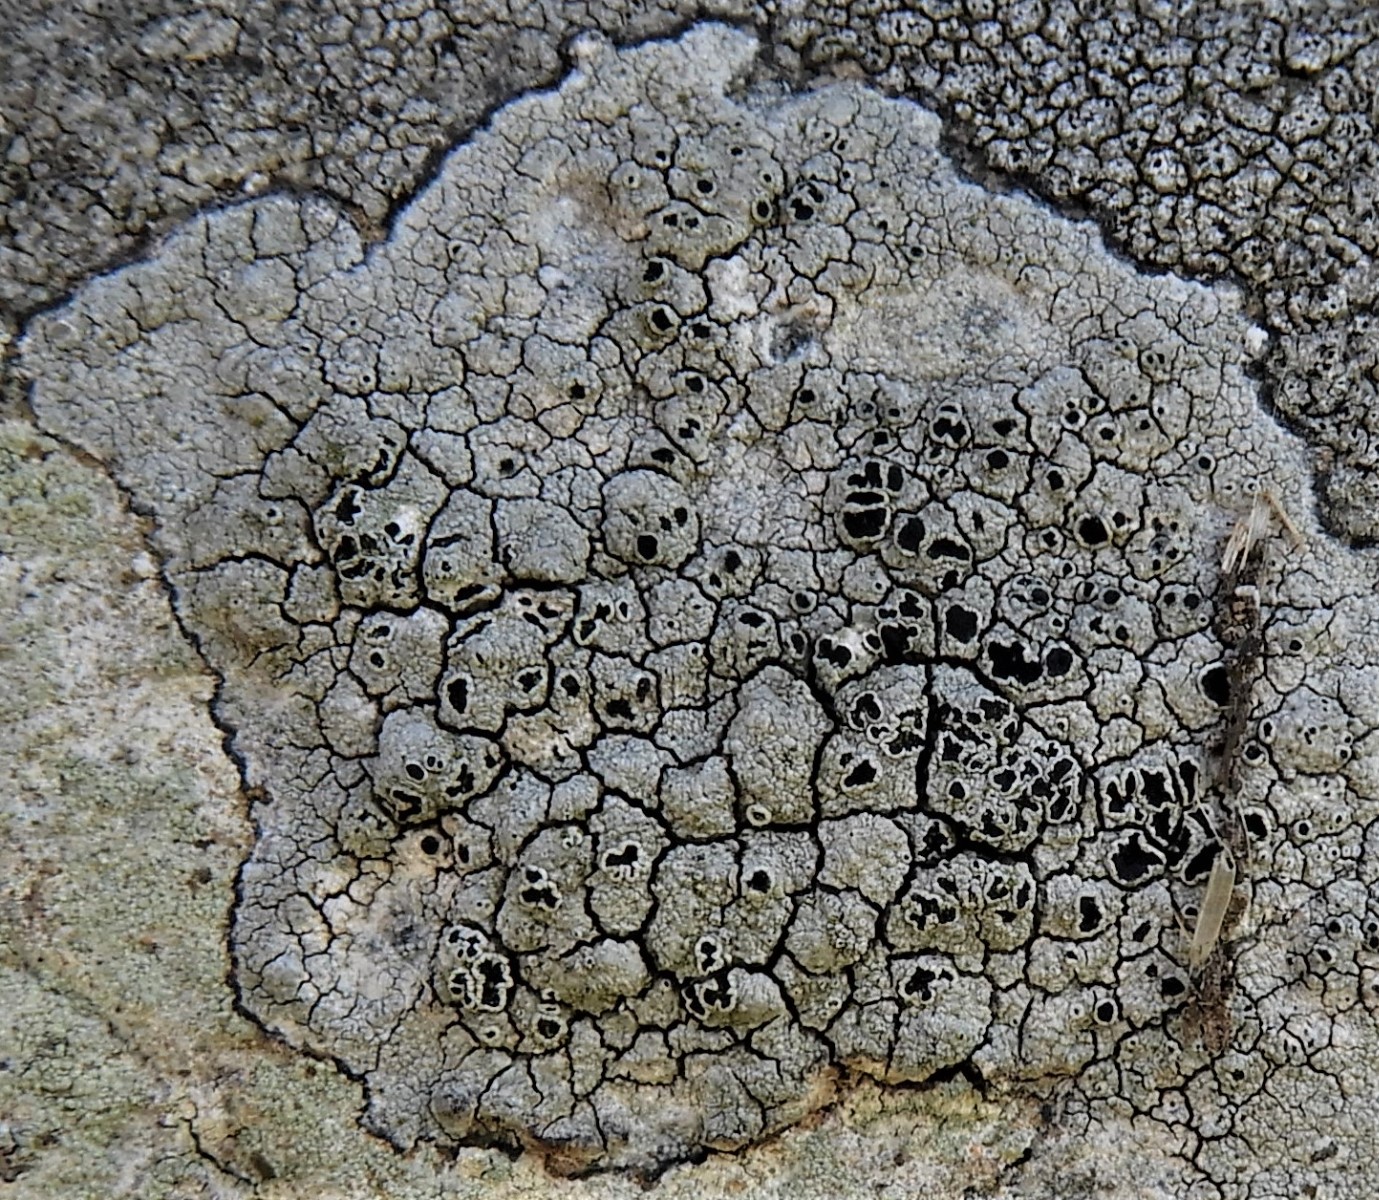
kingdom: Fungi
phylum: Ascomycota
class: Lecanoromycetes
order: Lecanorales
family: Tephromelataceae
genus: Tephromela
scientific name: Tephromela atra
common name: sortfrugtet kantskivelav
